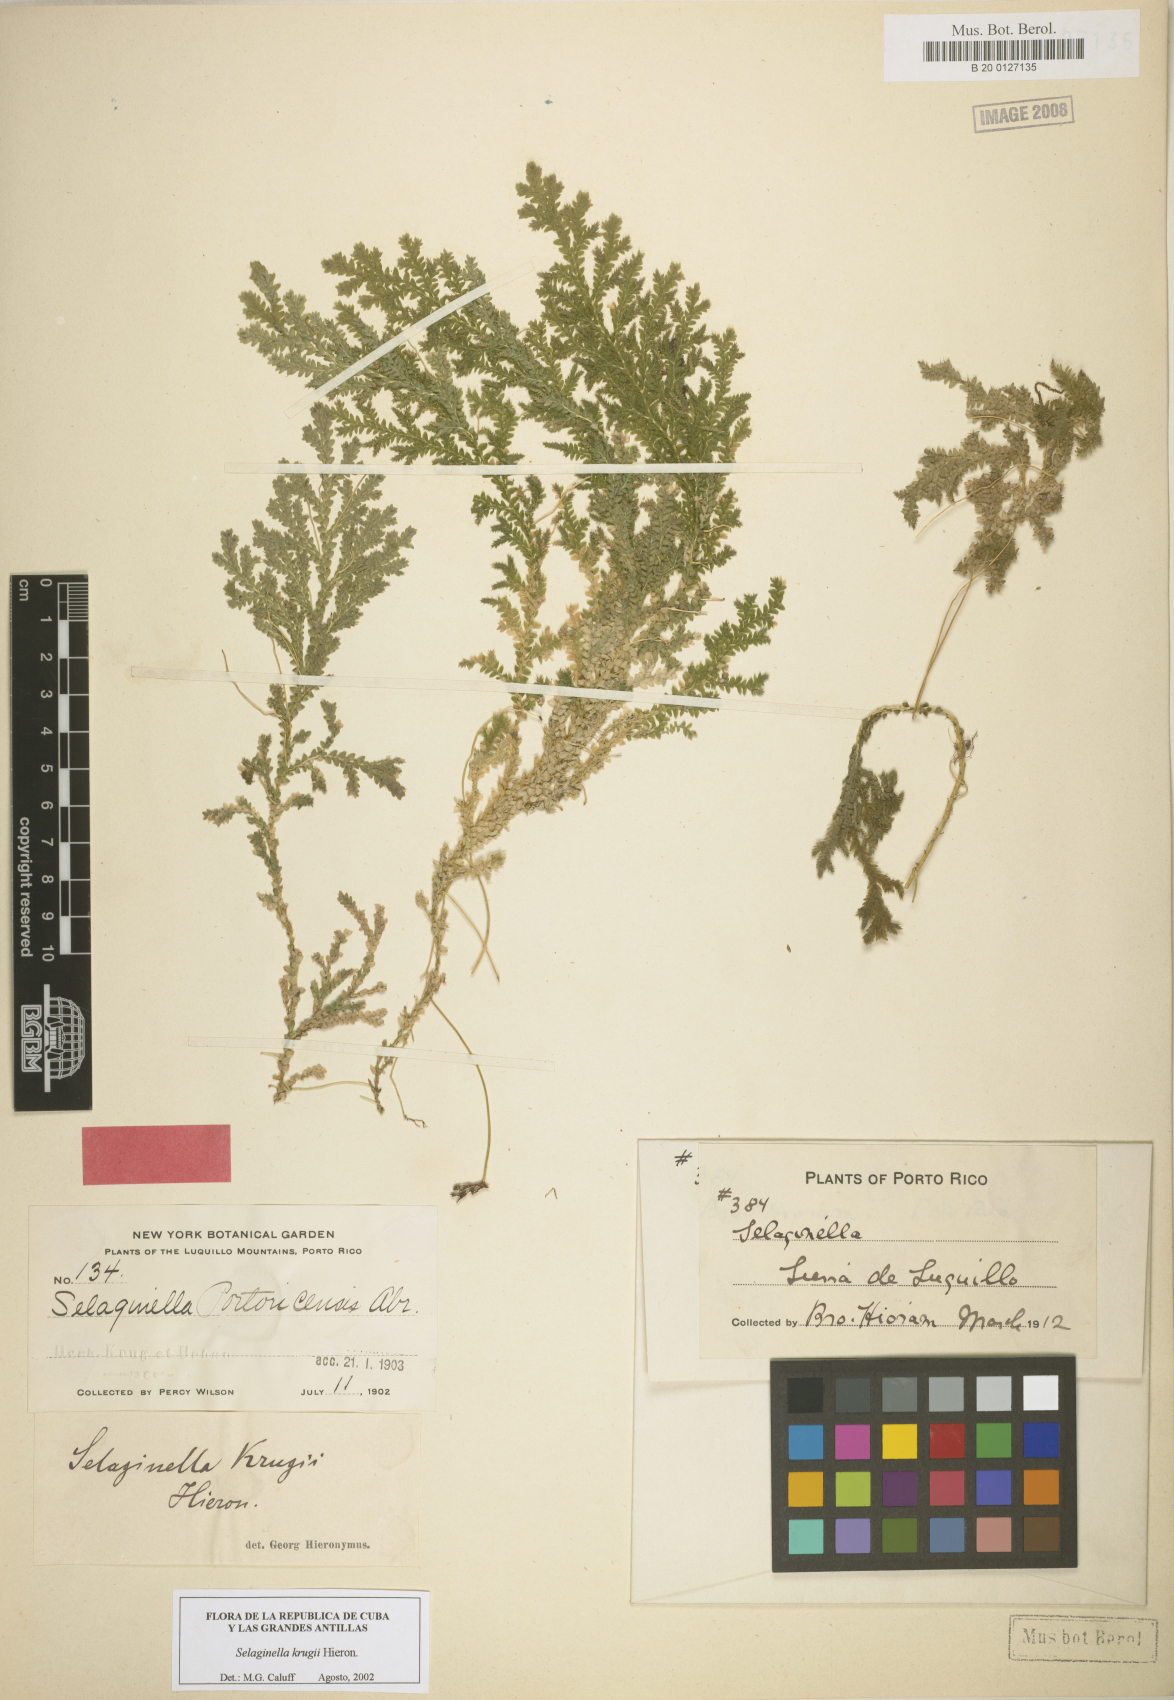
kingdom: Plantae
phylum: Tracheophyta
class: Lycopodiopsida
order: Selaginellales
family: Selaginellaceae
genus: Selaginella
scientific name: Selaginella krugii
